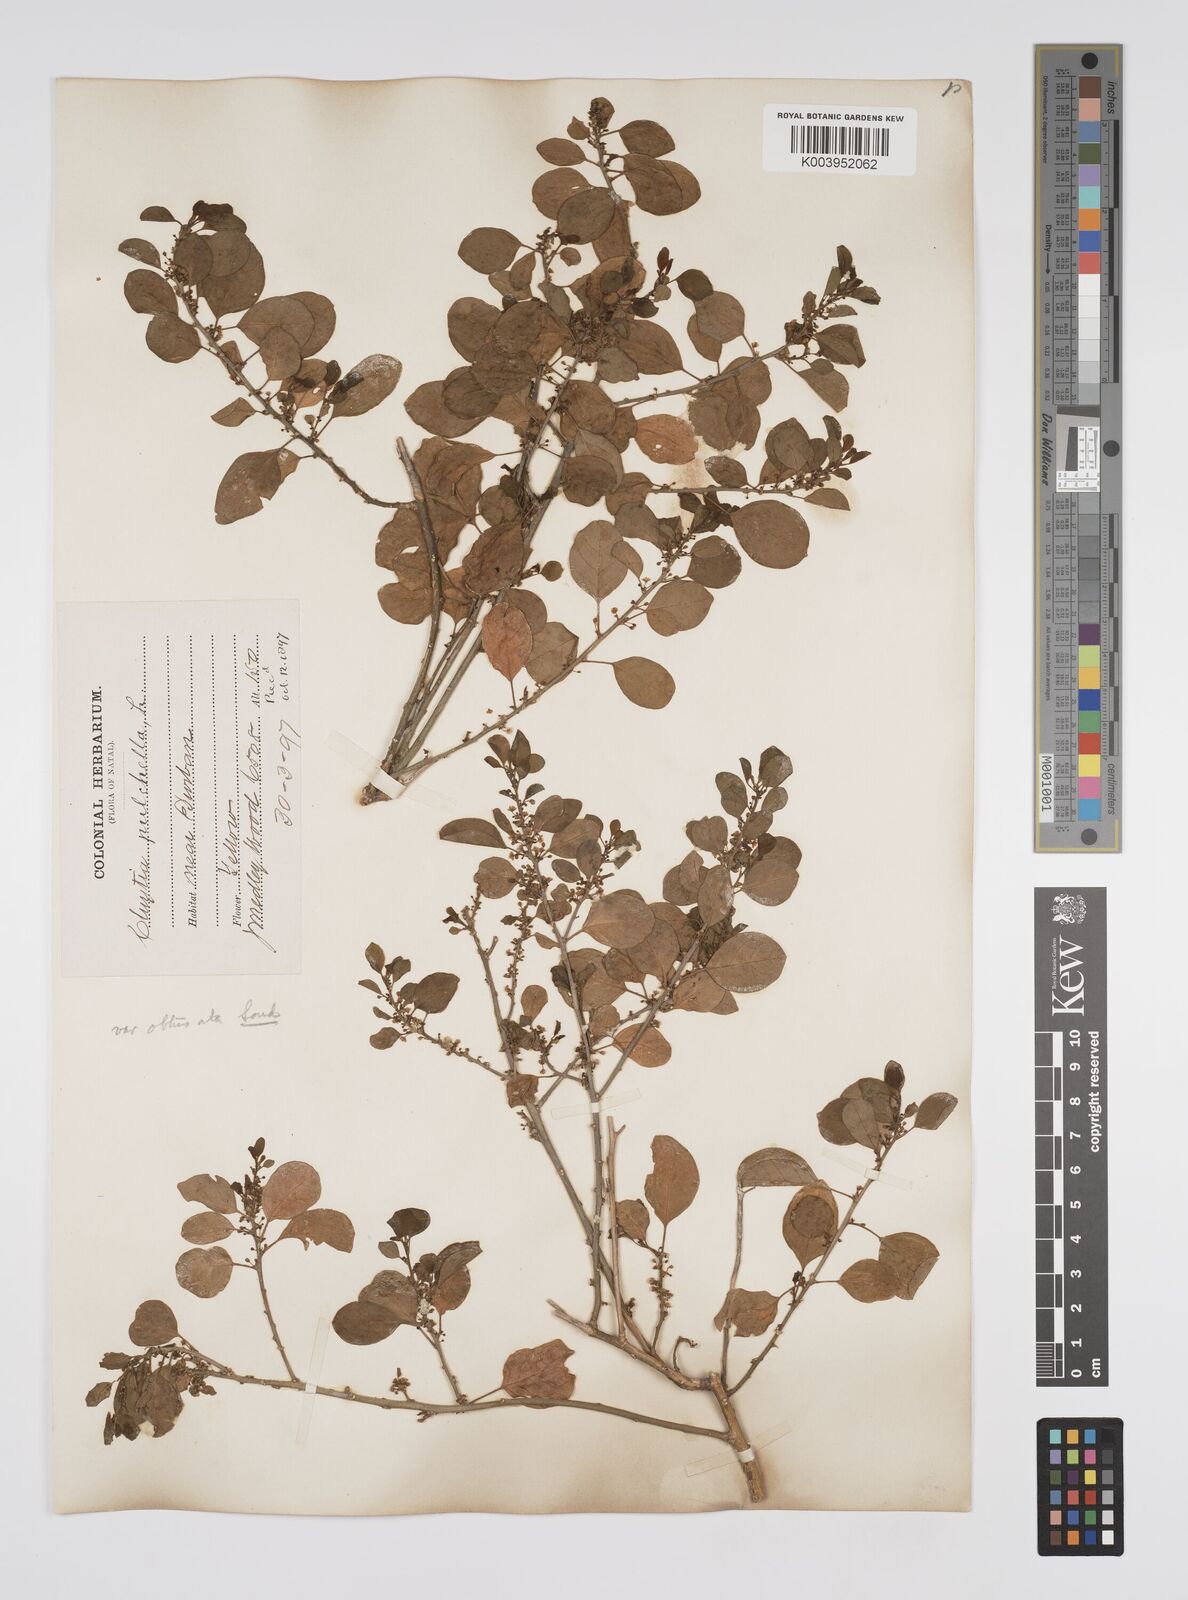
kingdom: Plantae
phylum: Tracheophyta
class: Magnoliopsida
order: Malpighiales
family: Peraceae
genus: Clutia
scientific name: Clutia pulchella
